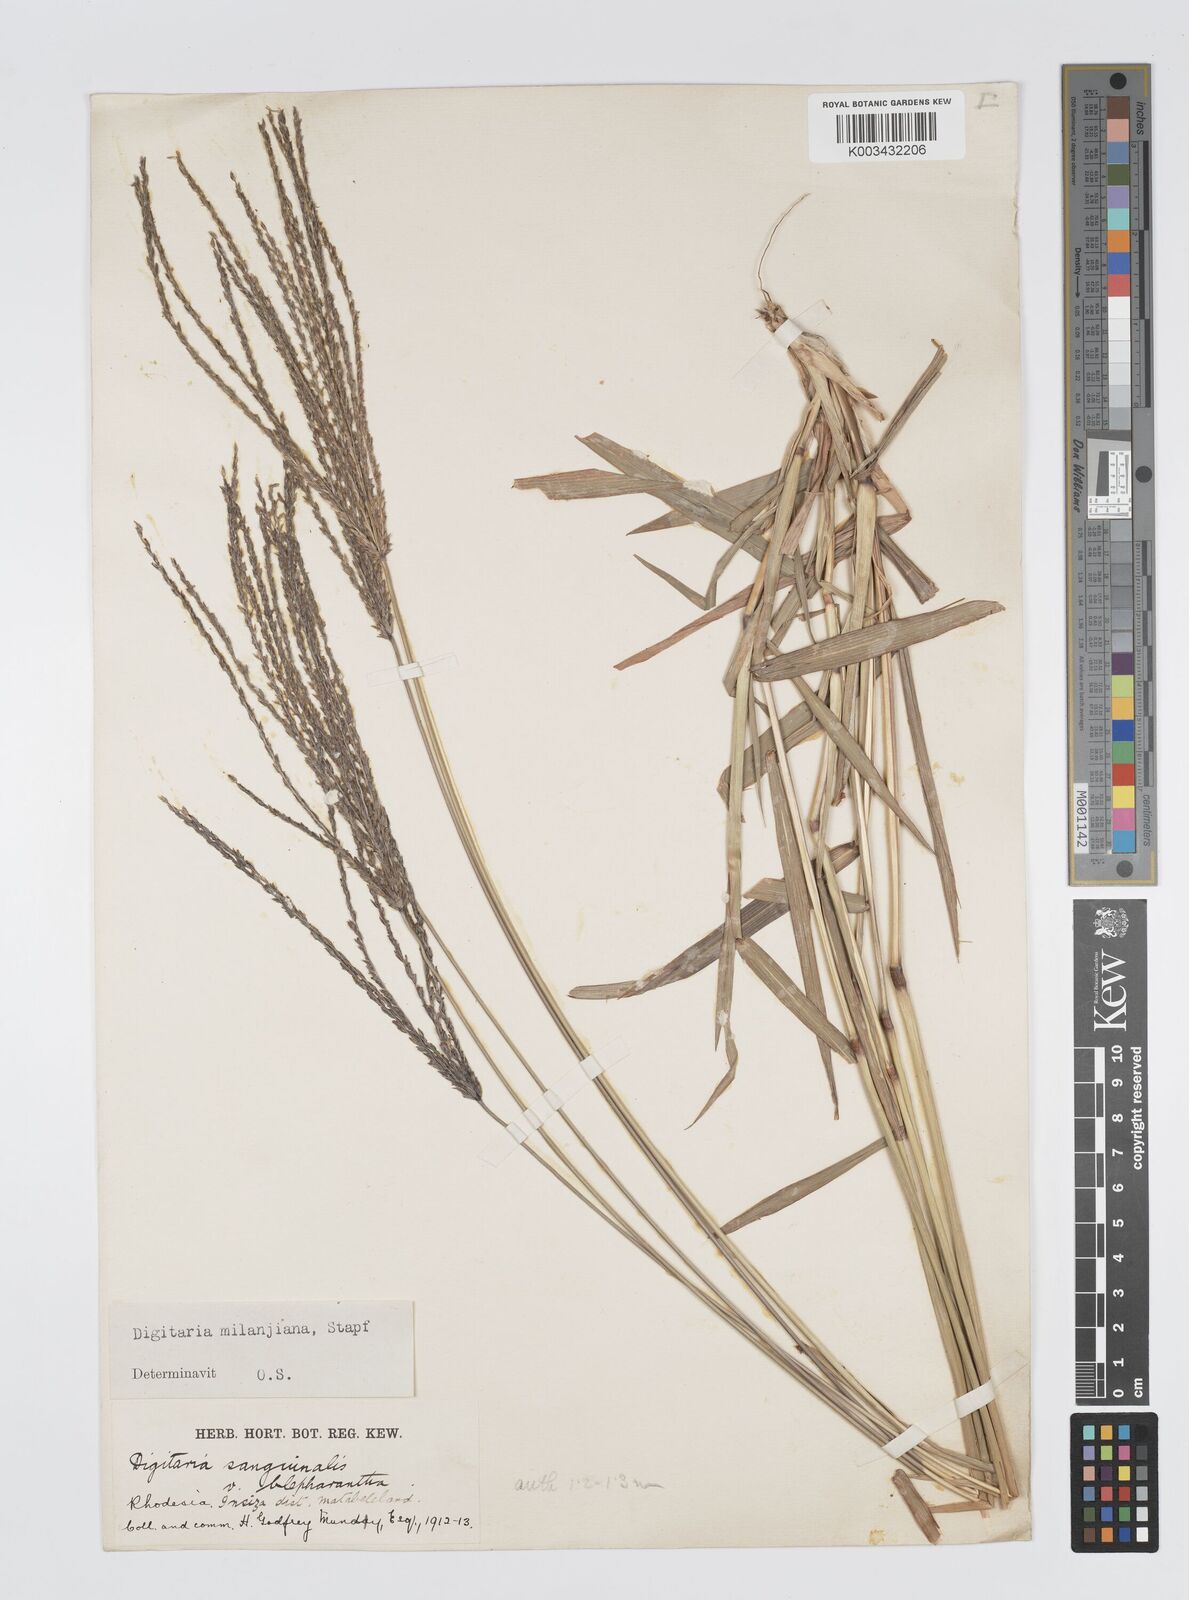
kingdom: Plantae
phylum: Tracheophyta
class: Liliopsida
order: Poales
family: Poaceae
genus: Digitaria
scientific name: Digitaria milanjiana
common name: Madagascar crabgrass
